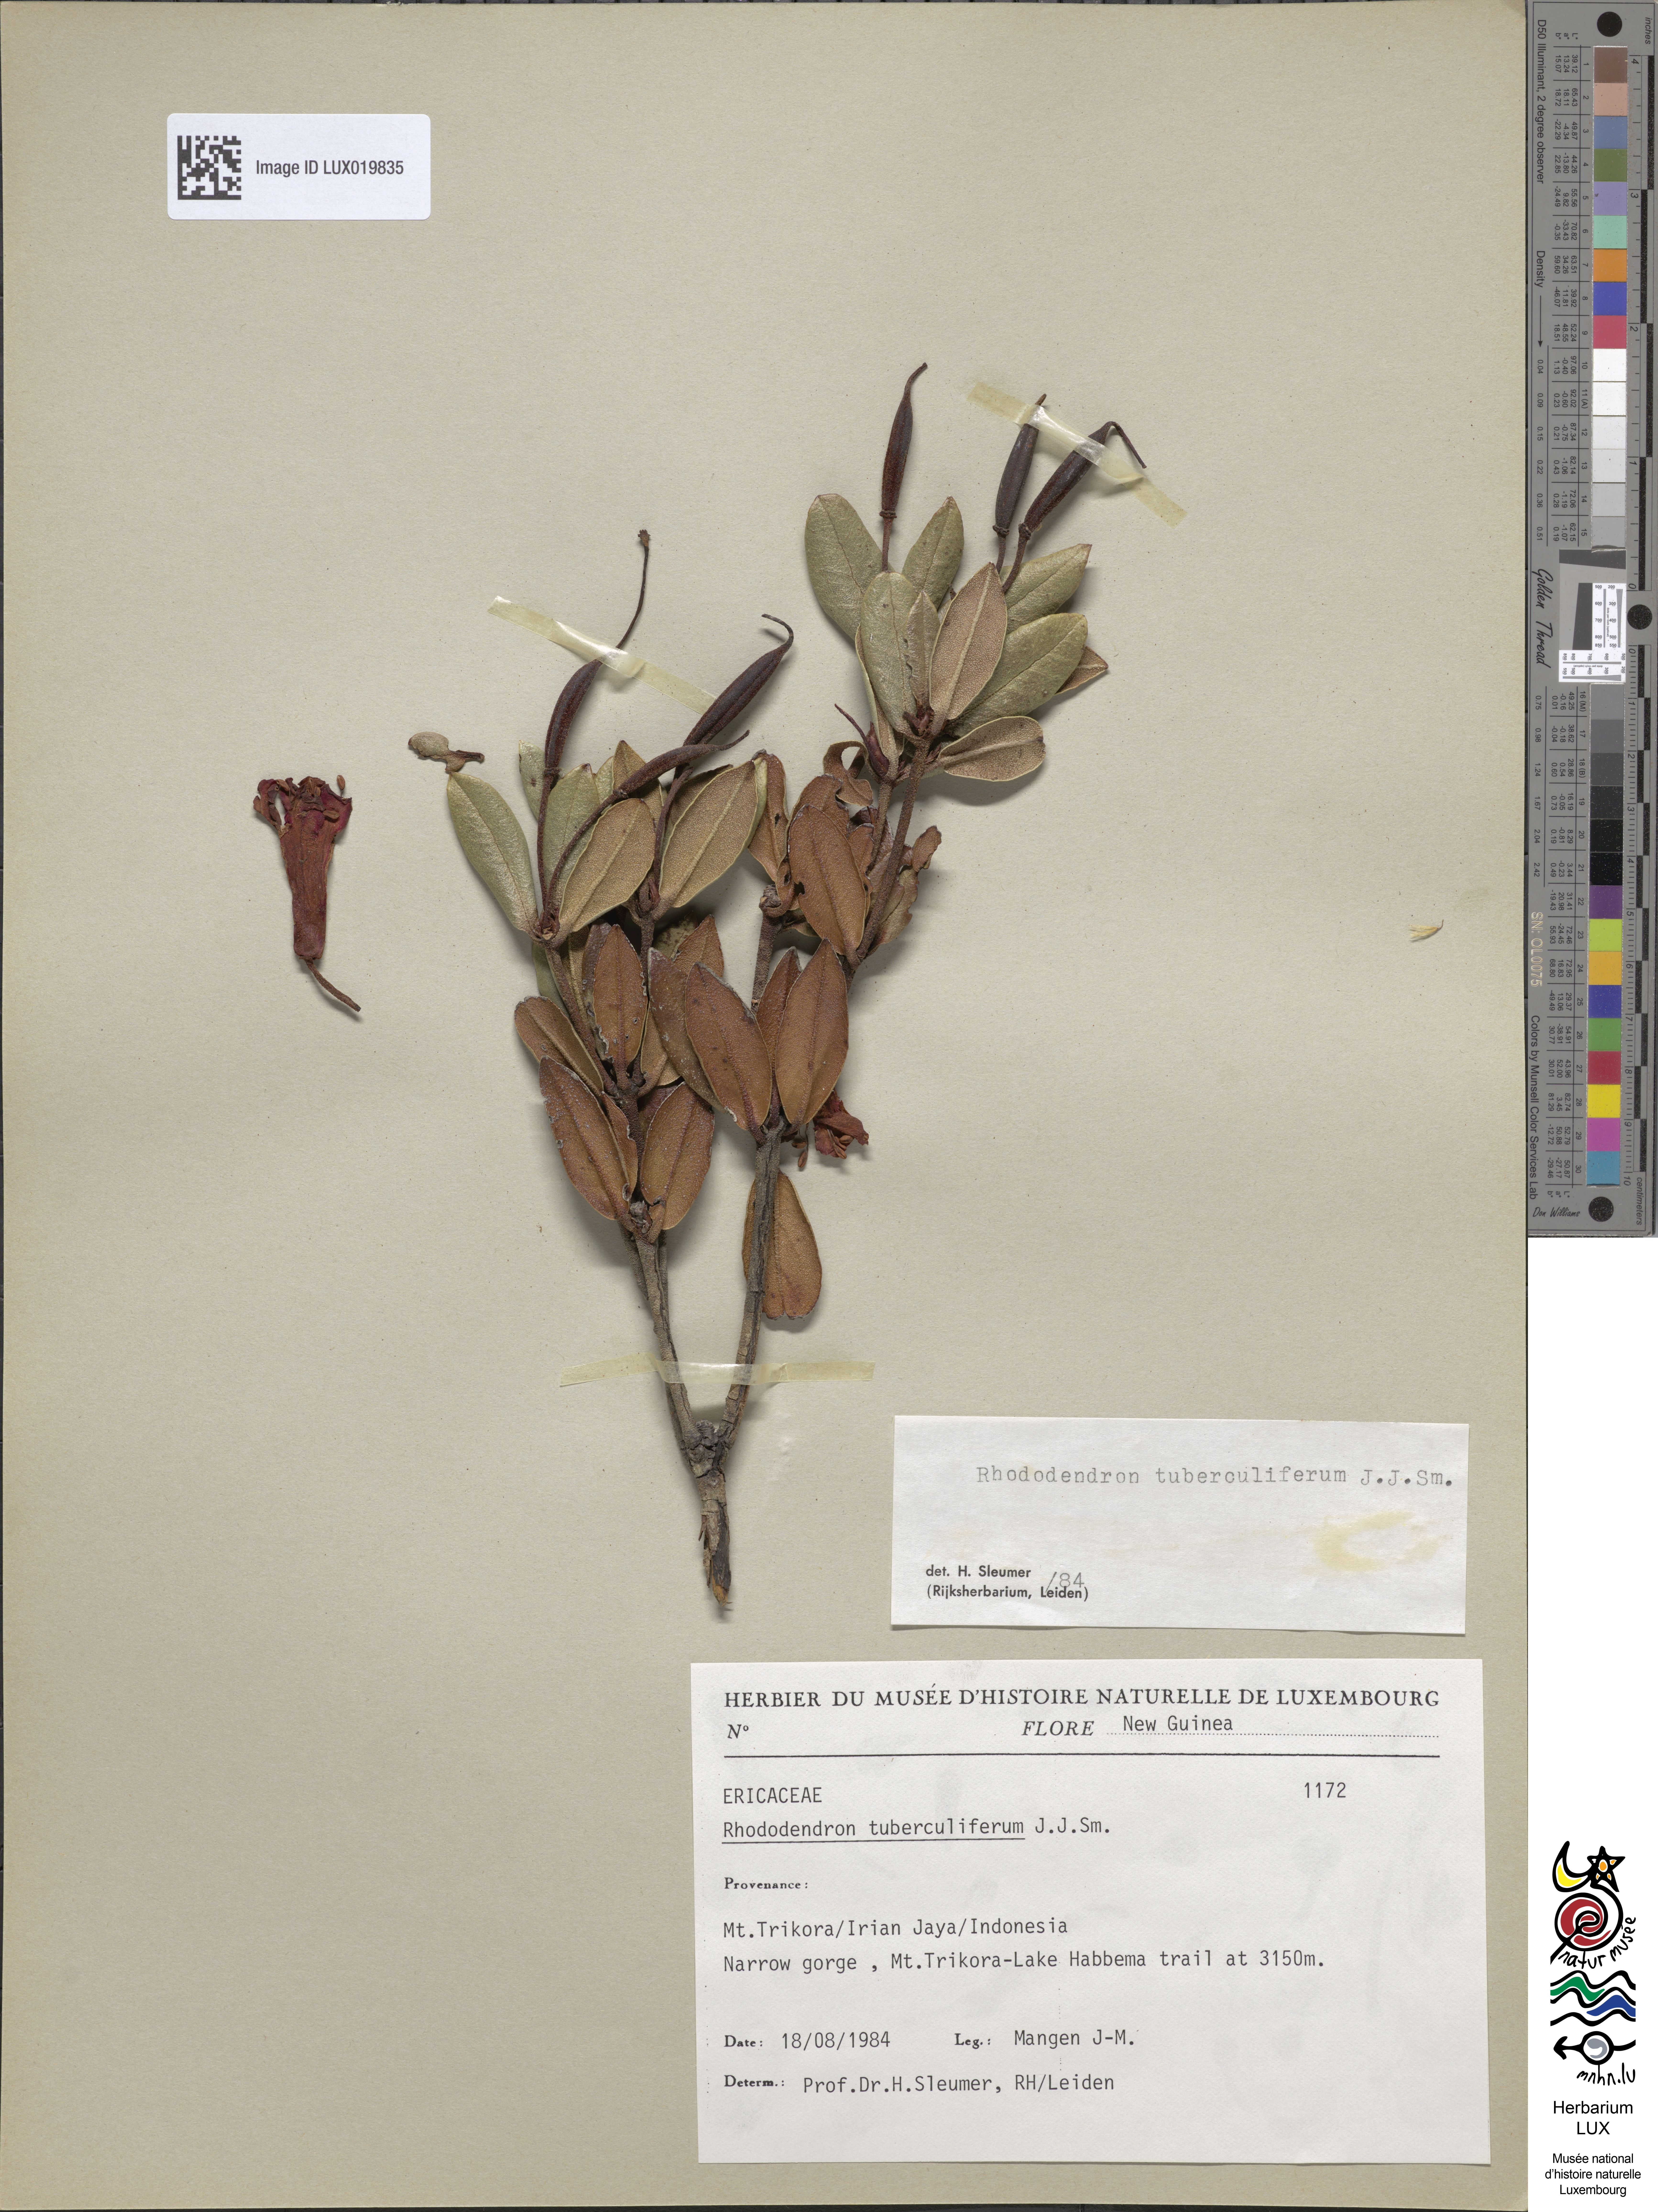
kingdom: Plantae
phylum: Tracheophyta
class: Magnoliopsida
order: Ericales
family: Ericaceae
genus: Rhododendron
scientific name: Rhododendron tuberculiferum
